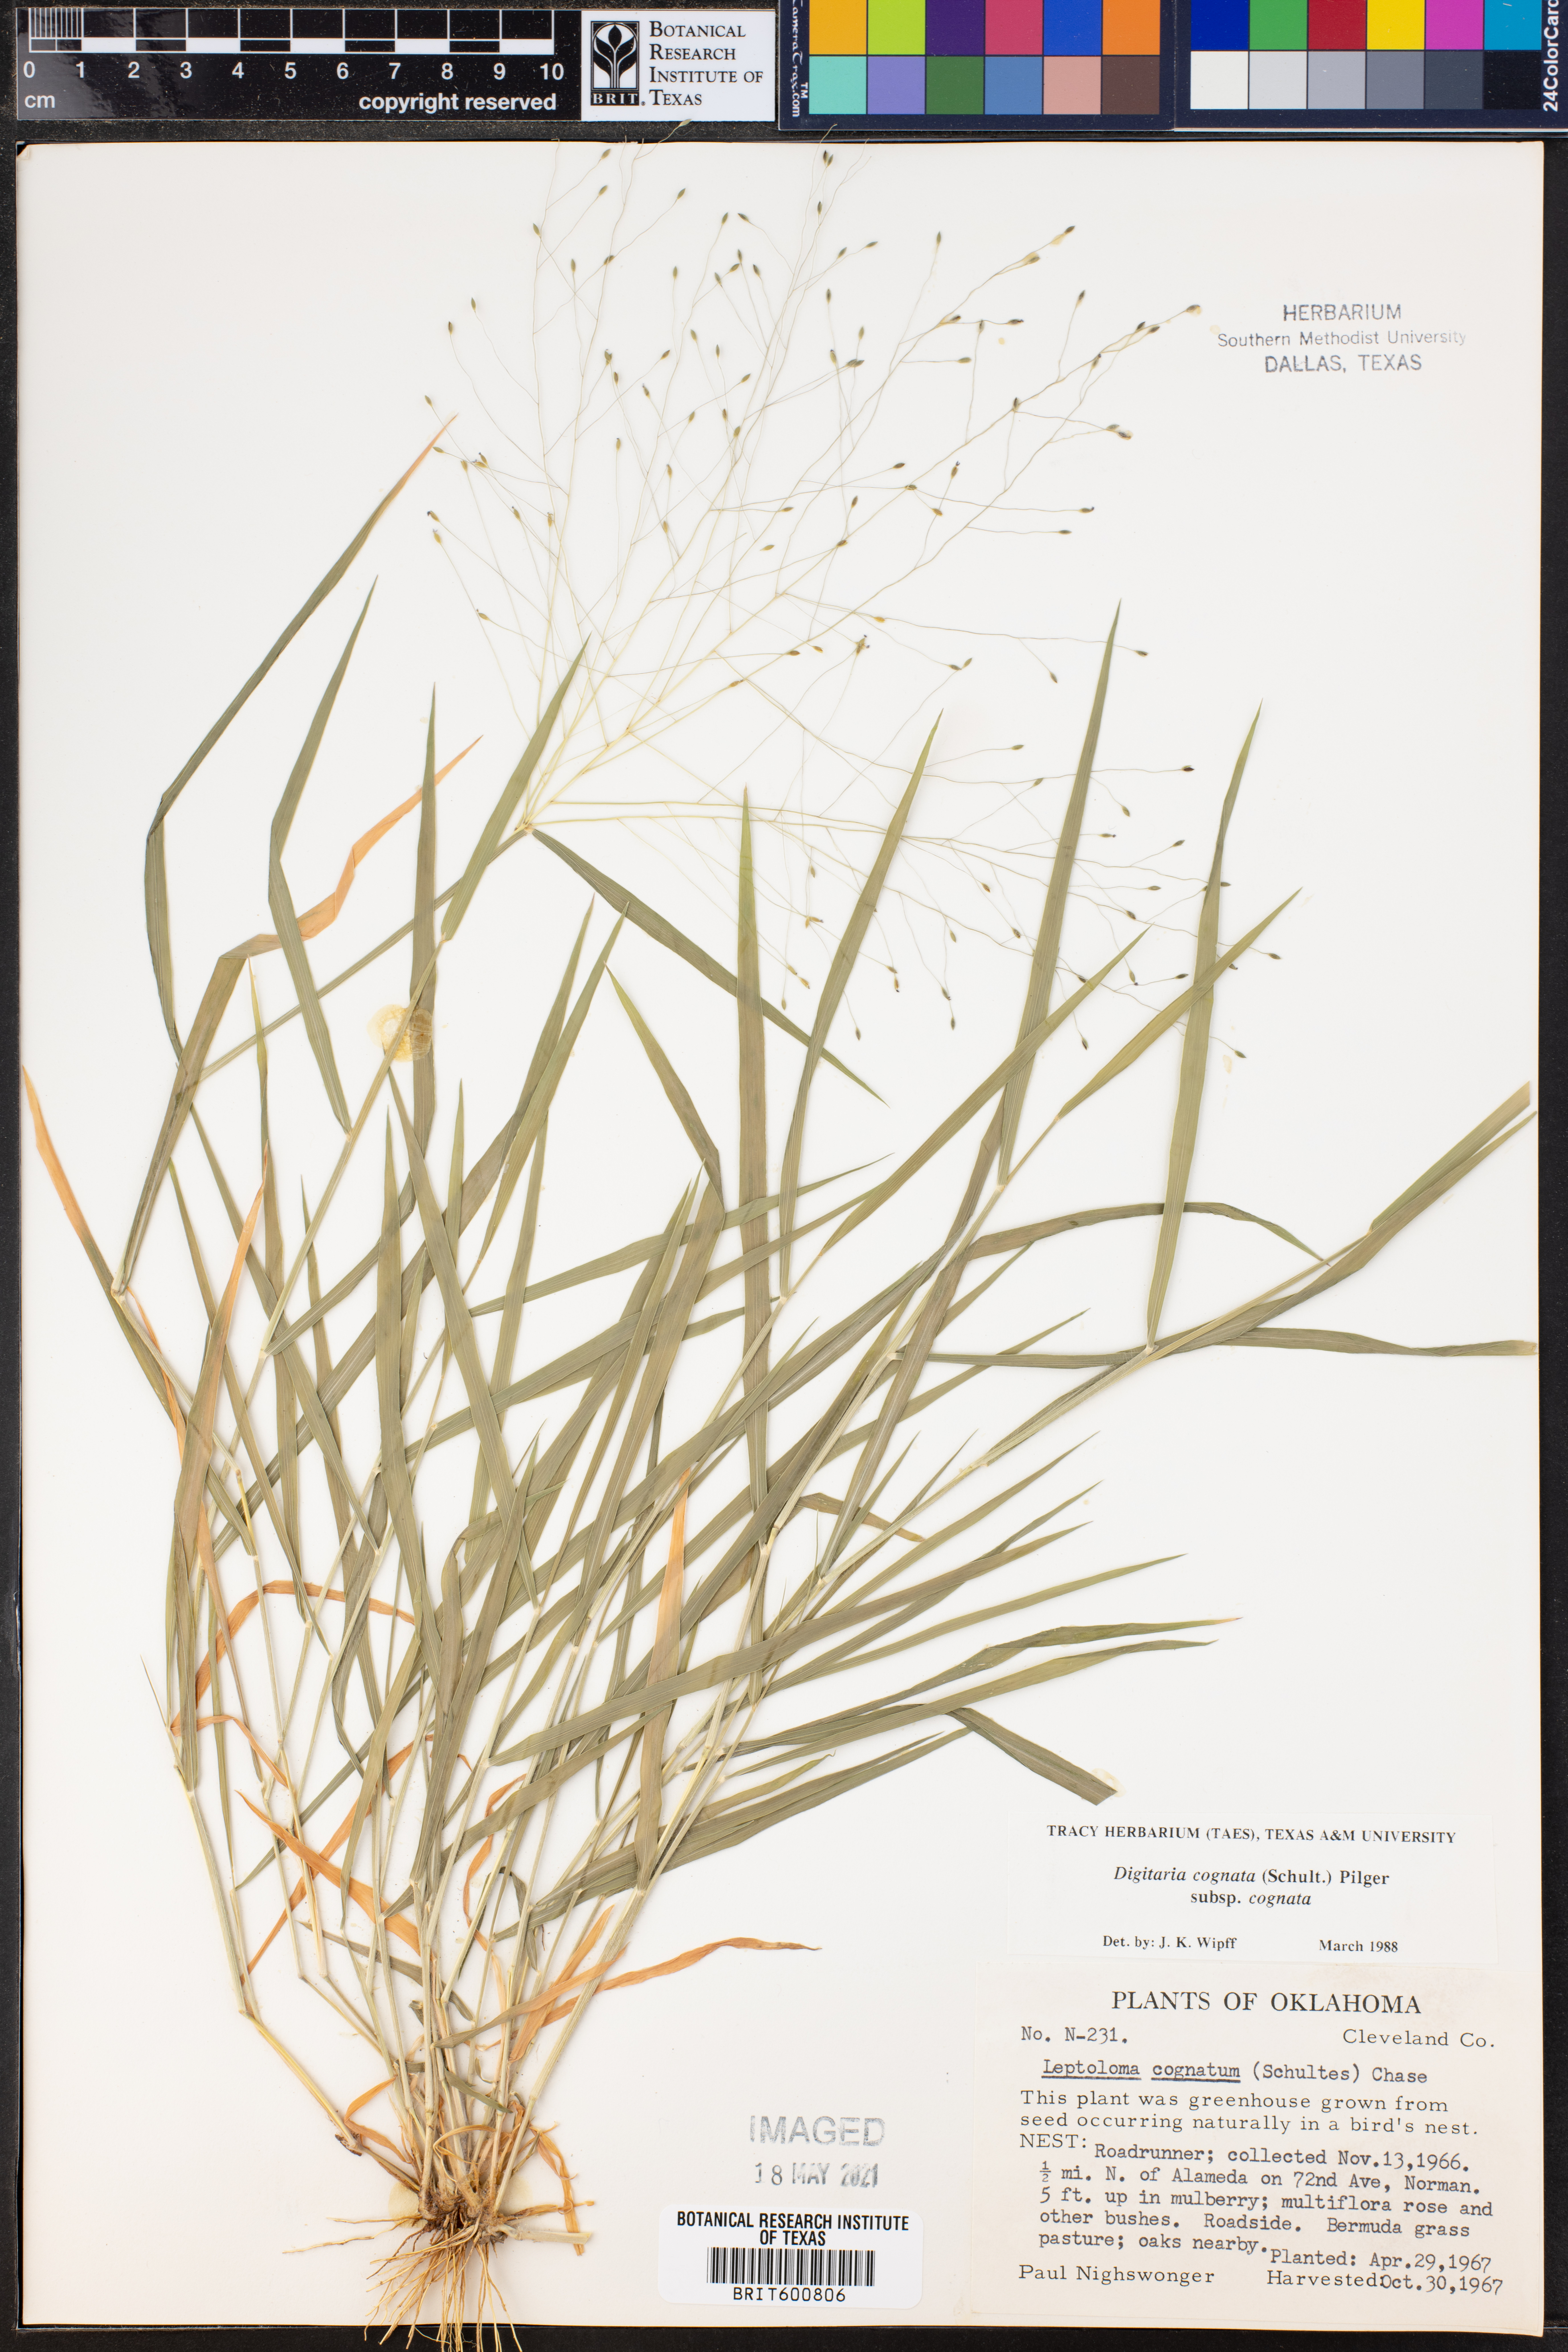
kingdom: Plantae
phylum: Tracheophyta
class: Liliopsida
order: Poales
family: Poaceae
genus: Digitaria
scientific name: Digitaria cognata
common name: Fall witchgrass
